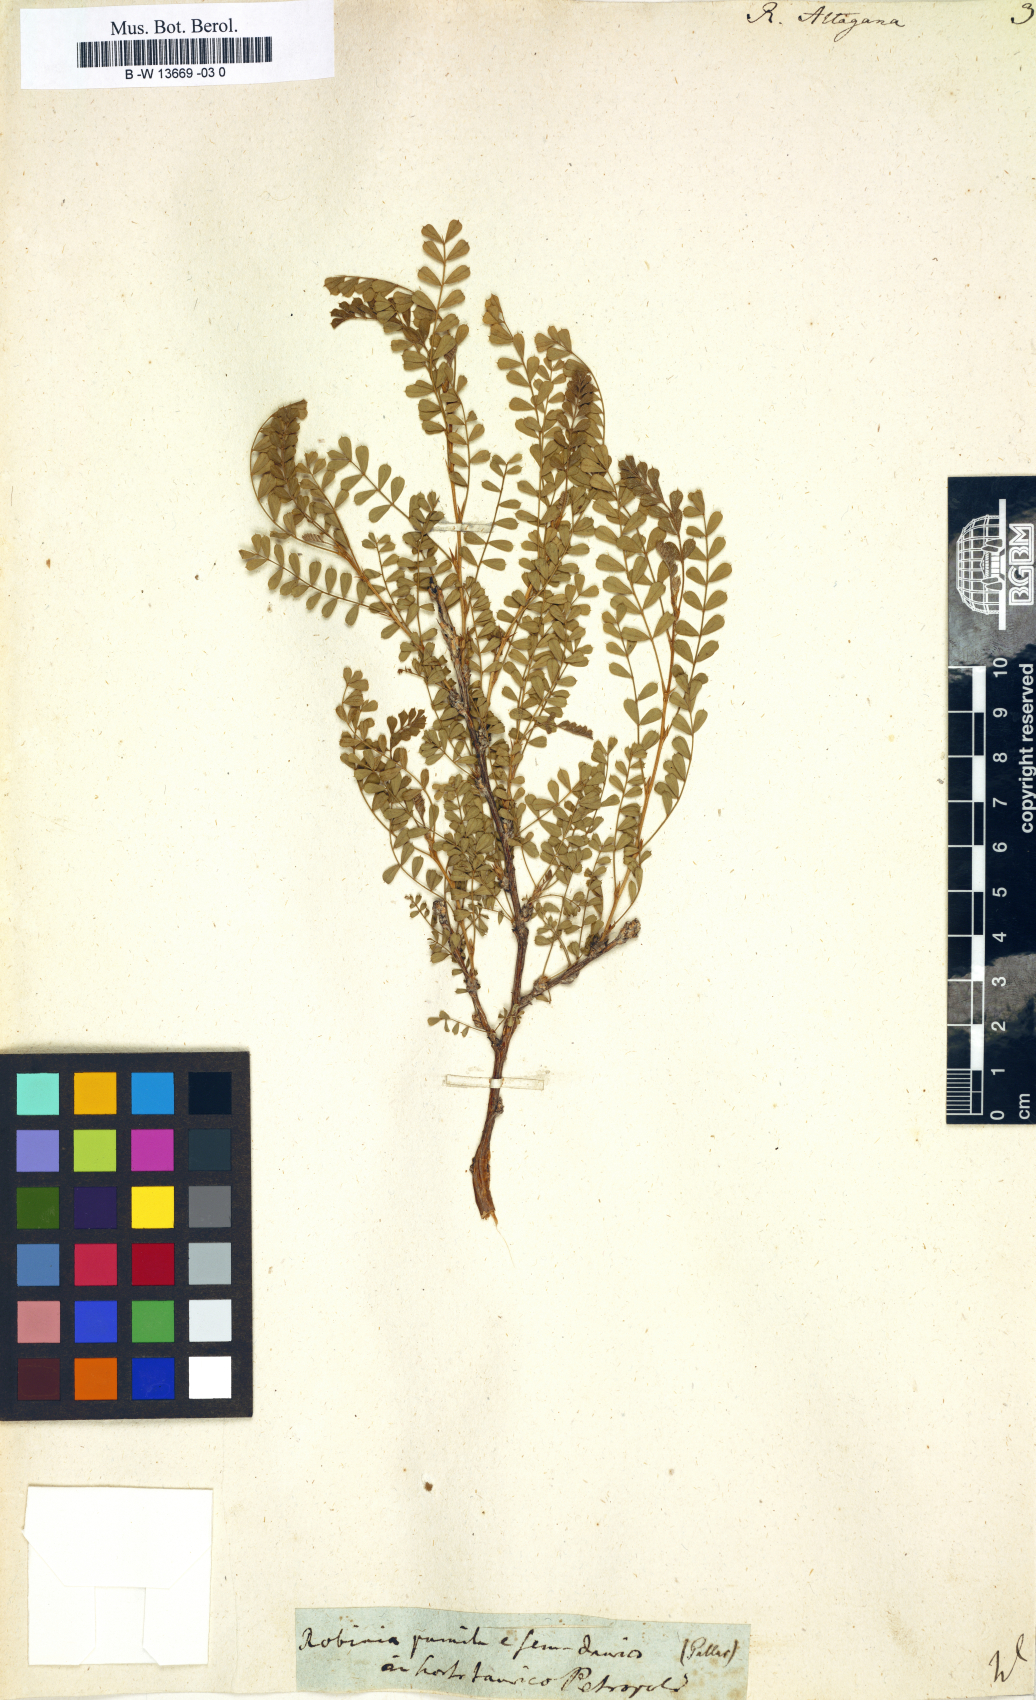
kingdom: Plantae
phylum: Tracheophyta
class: Magnoliopsida
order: Fabales
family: Fabaceae
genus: Caragana
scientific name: Caragana arborescens
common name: Siberian peashrub
